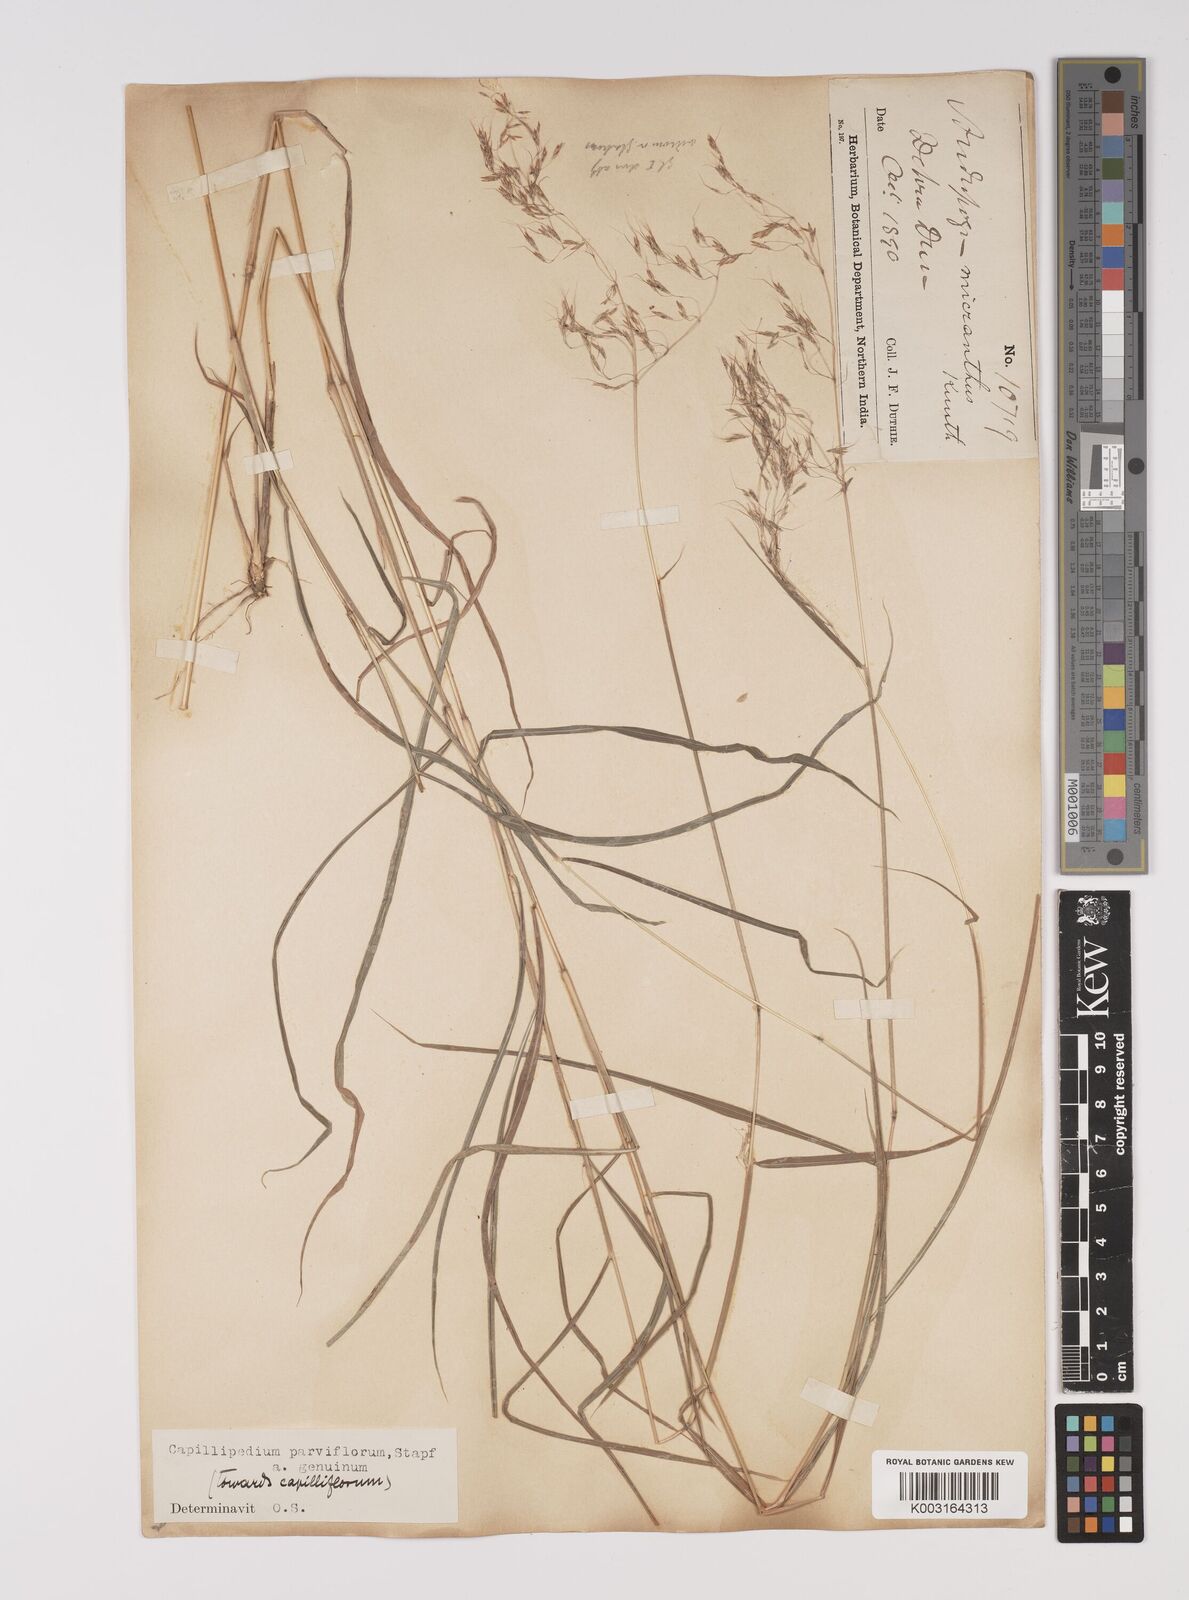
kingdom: Plantae
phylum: Tracheophyta
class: Liliopsida
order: Poales
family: Poaceae
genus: Capillipedium
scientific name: Capillipedium parviflorum
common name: Golden-beard
